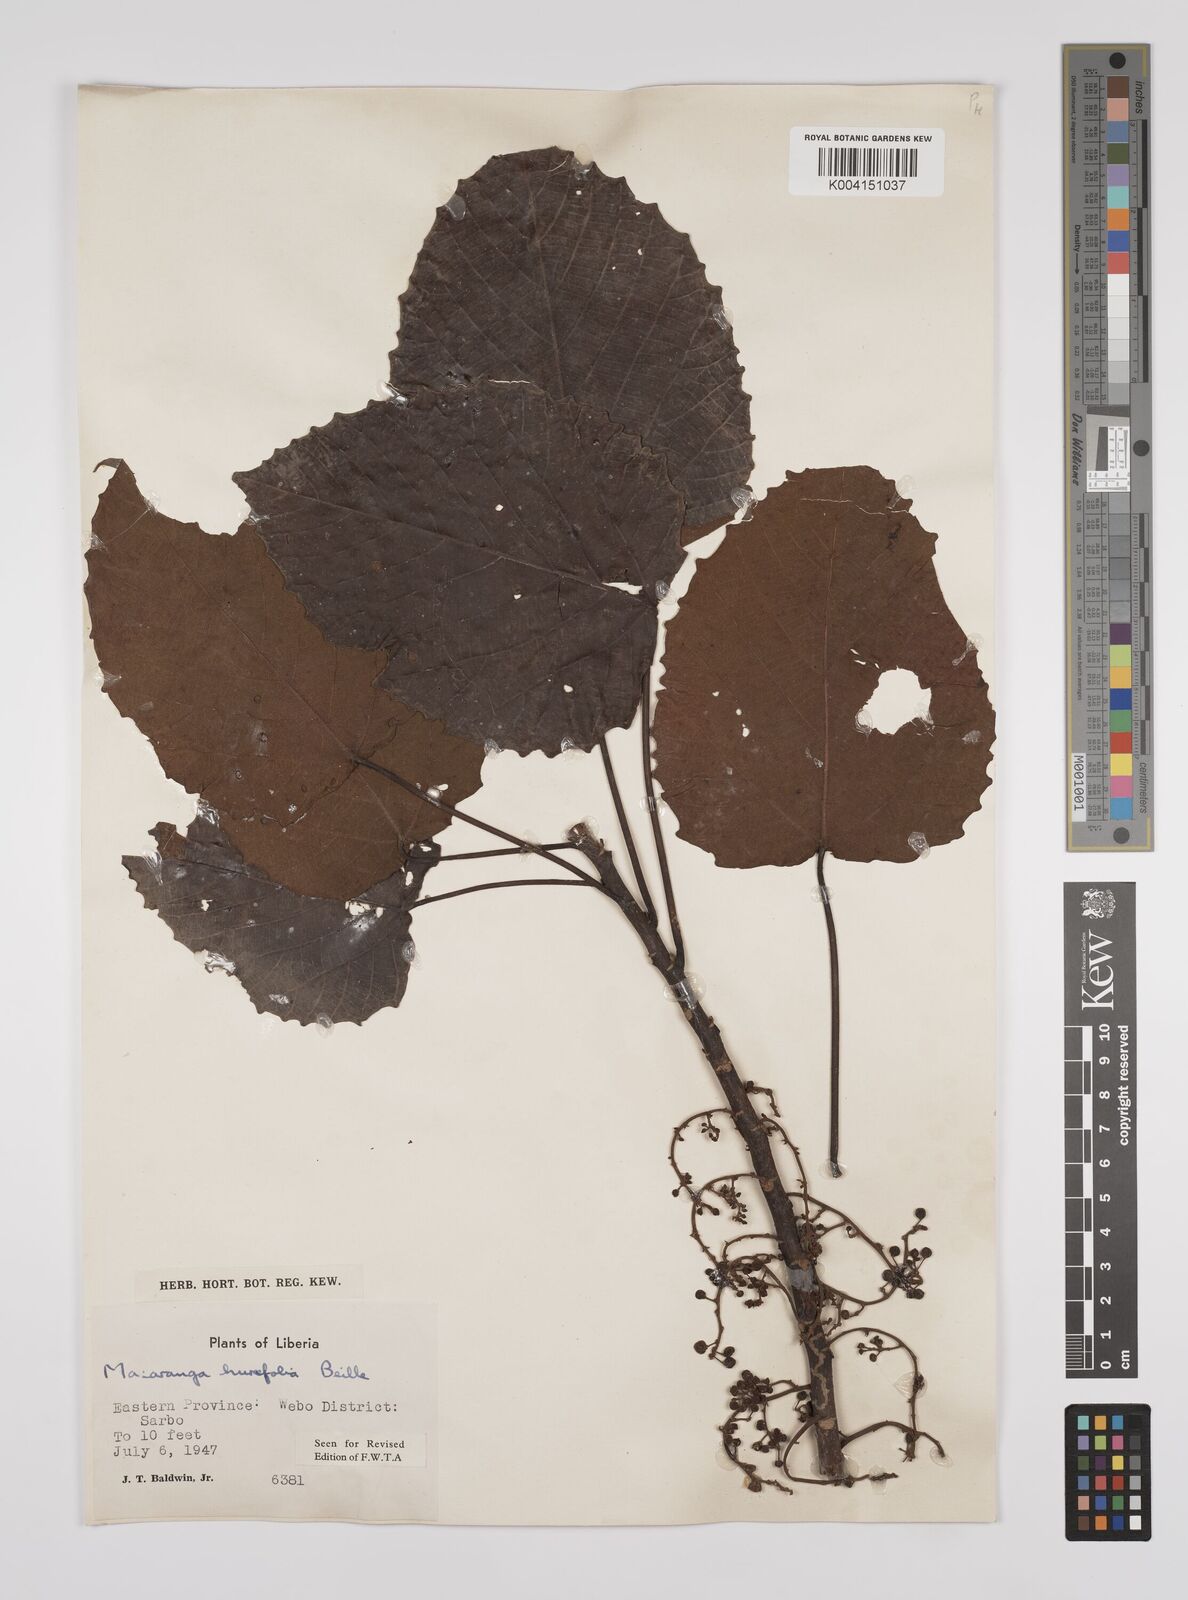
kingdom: Plantae
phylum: Tracheophyta
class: Magnoliopsida
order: Malpighiales
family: Euphorbiaceae
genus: Macaranga
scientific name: Macaranga hurifolia
